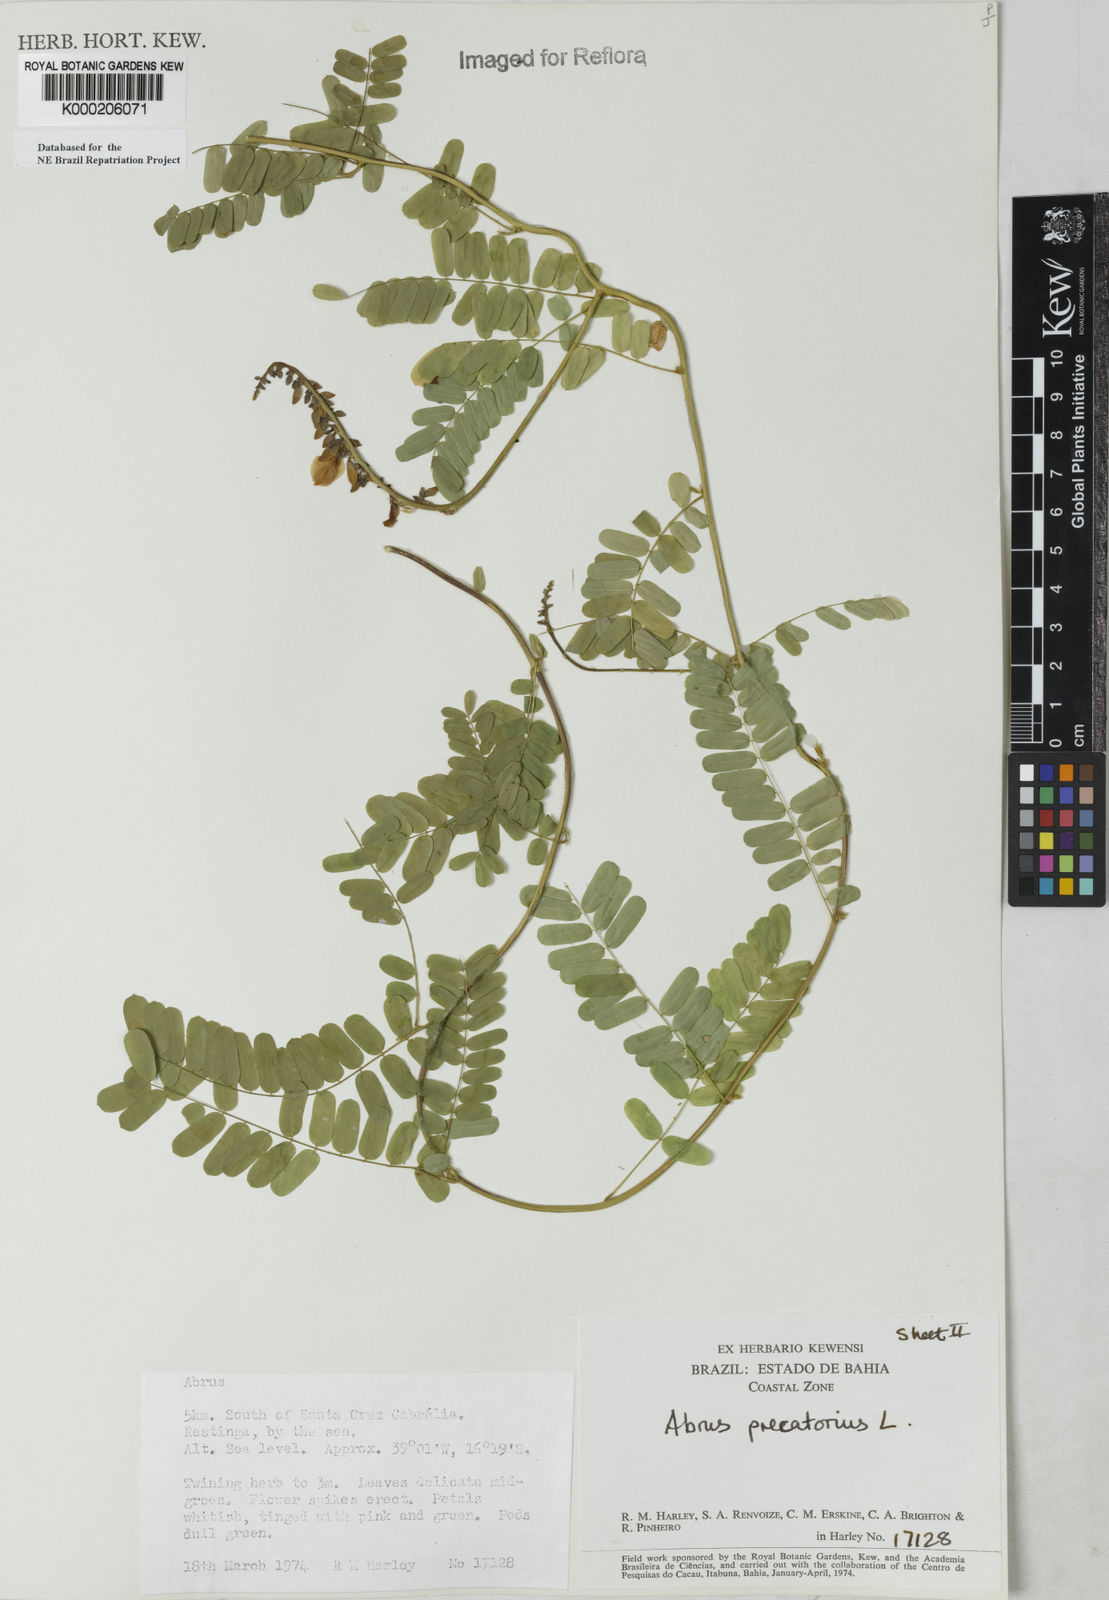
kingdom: Plantae
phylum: Tracheophyta
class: Magnoliopsida
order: Fabales
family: Fabaceae
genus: Abrus
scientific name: Abrus precatorius
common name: Rosarypea
